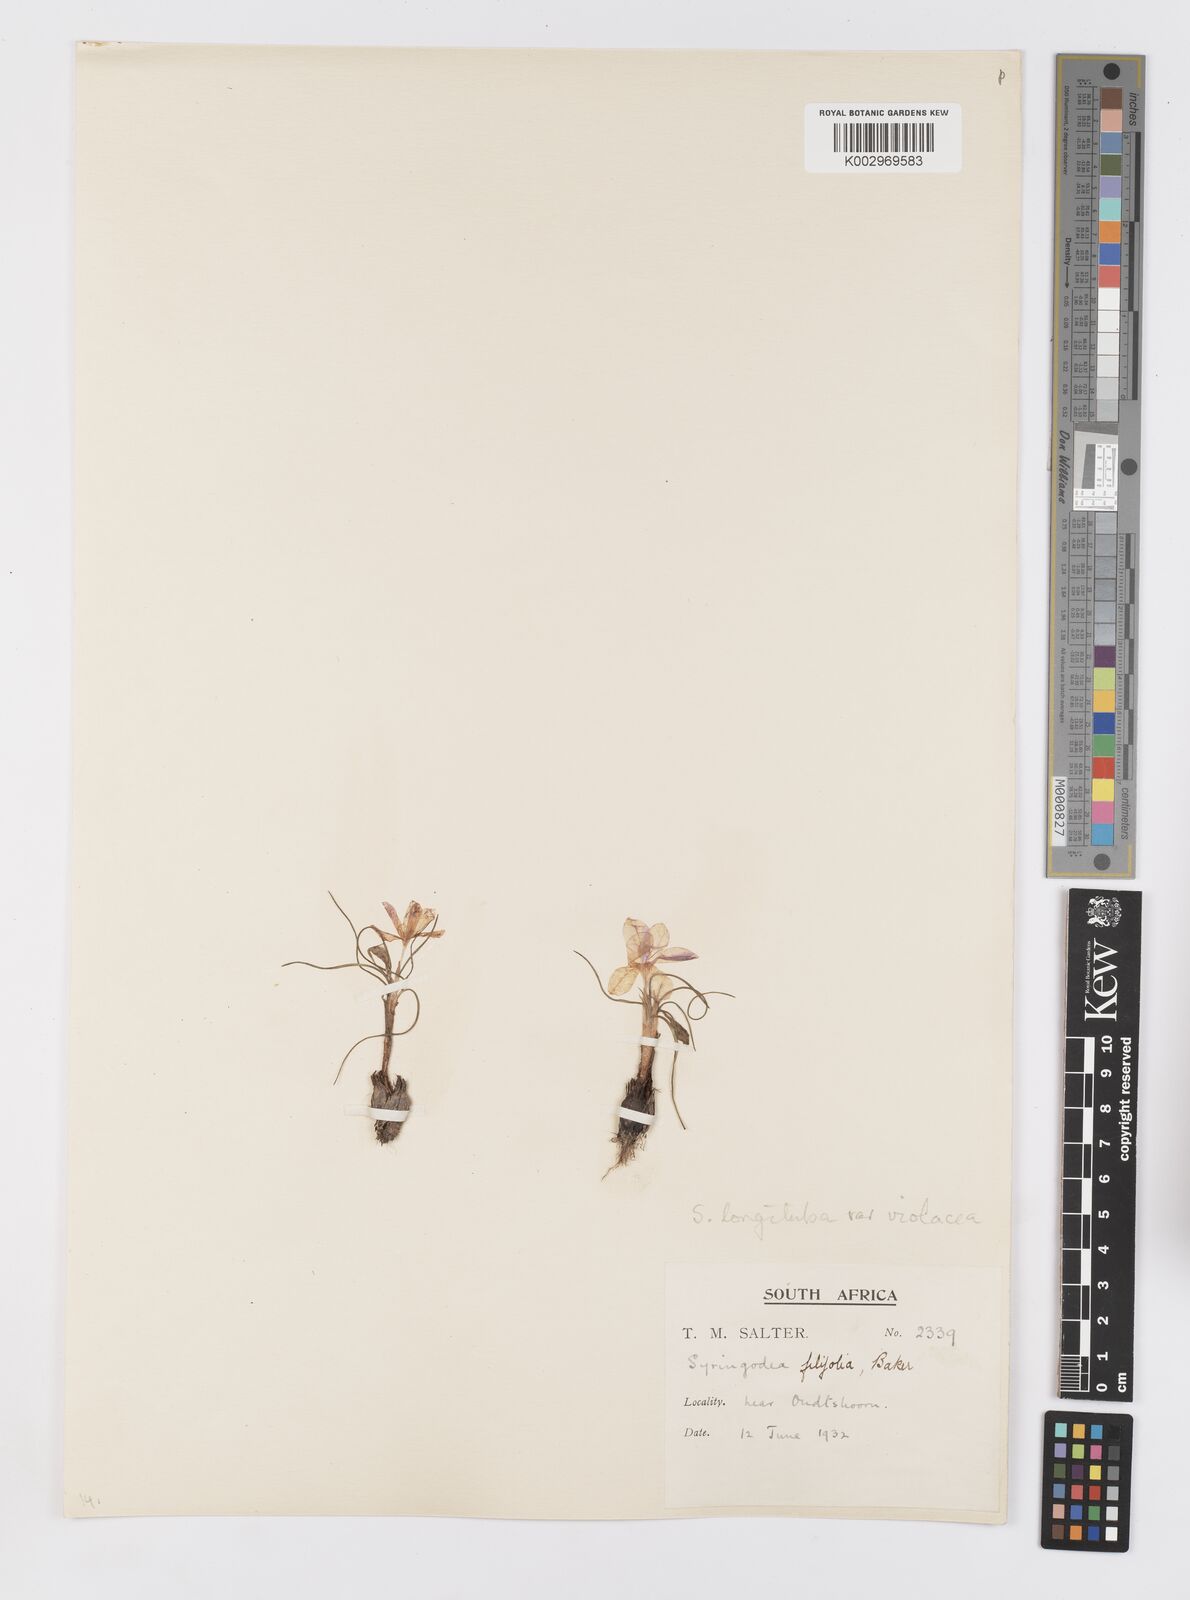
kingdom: Plantae
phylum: Tracheophyta
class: Liliopsida
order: Asparagales
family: Iridaceae
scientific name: Iridaceae
